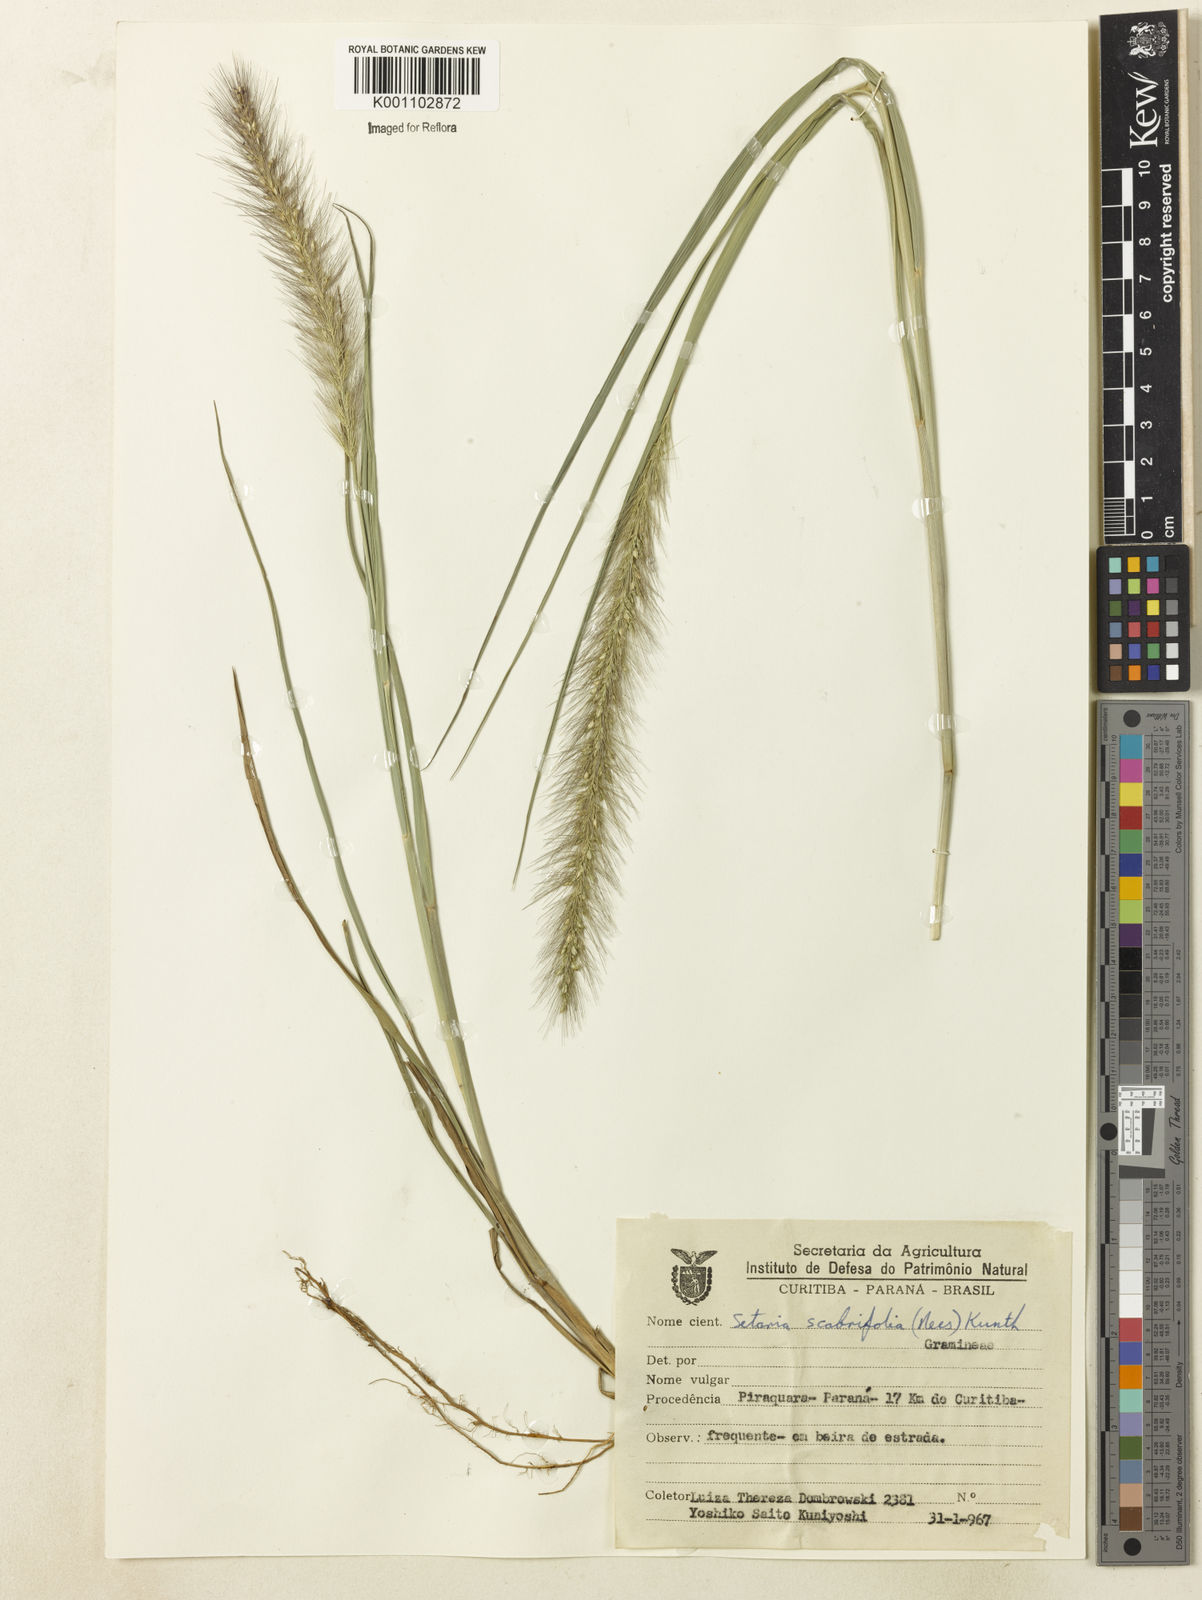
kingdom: Plantae
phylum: Tracheophyta
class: Liliopsida
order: Poales
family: Poaceae
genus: Setaria
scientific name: Setaria scabrifolia
